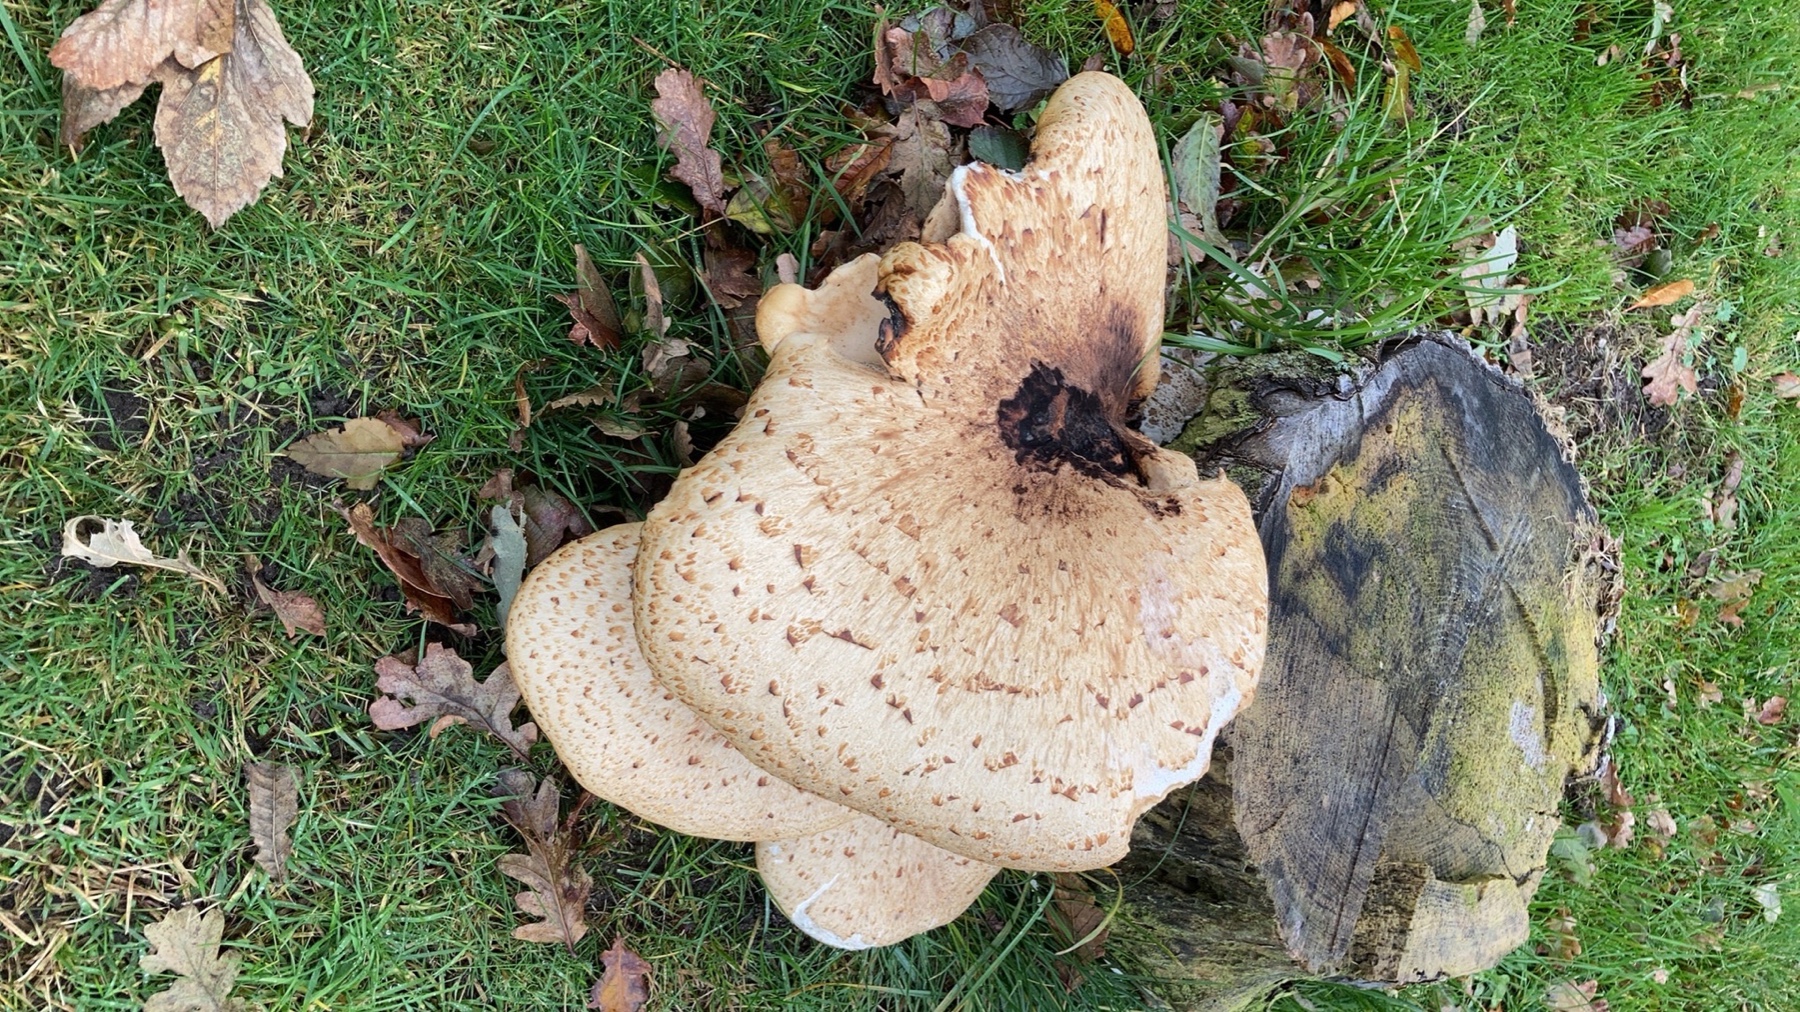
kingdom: Fungi
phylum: Basidiomycota
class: Agaricomycetes
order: Polyporales
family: Polyporaceae
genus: Cerioporus
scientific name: Cerioporus squamosus
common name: skællet stilkporesvamp
